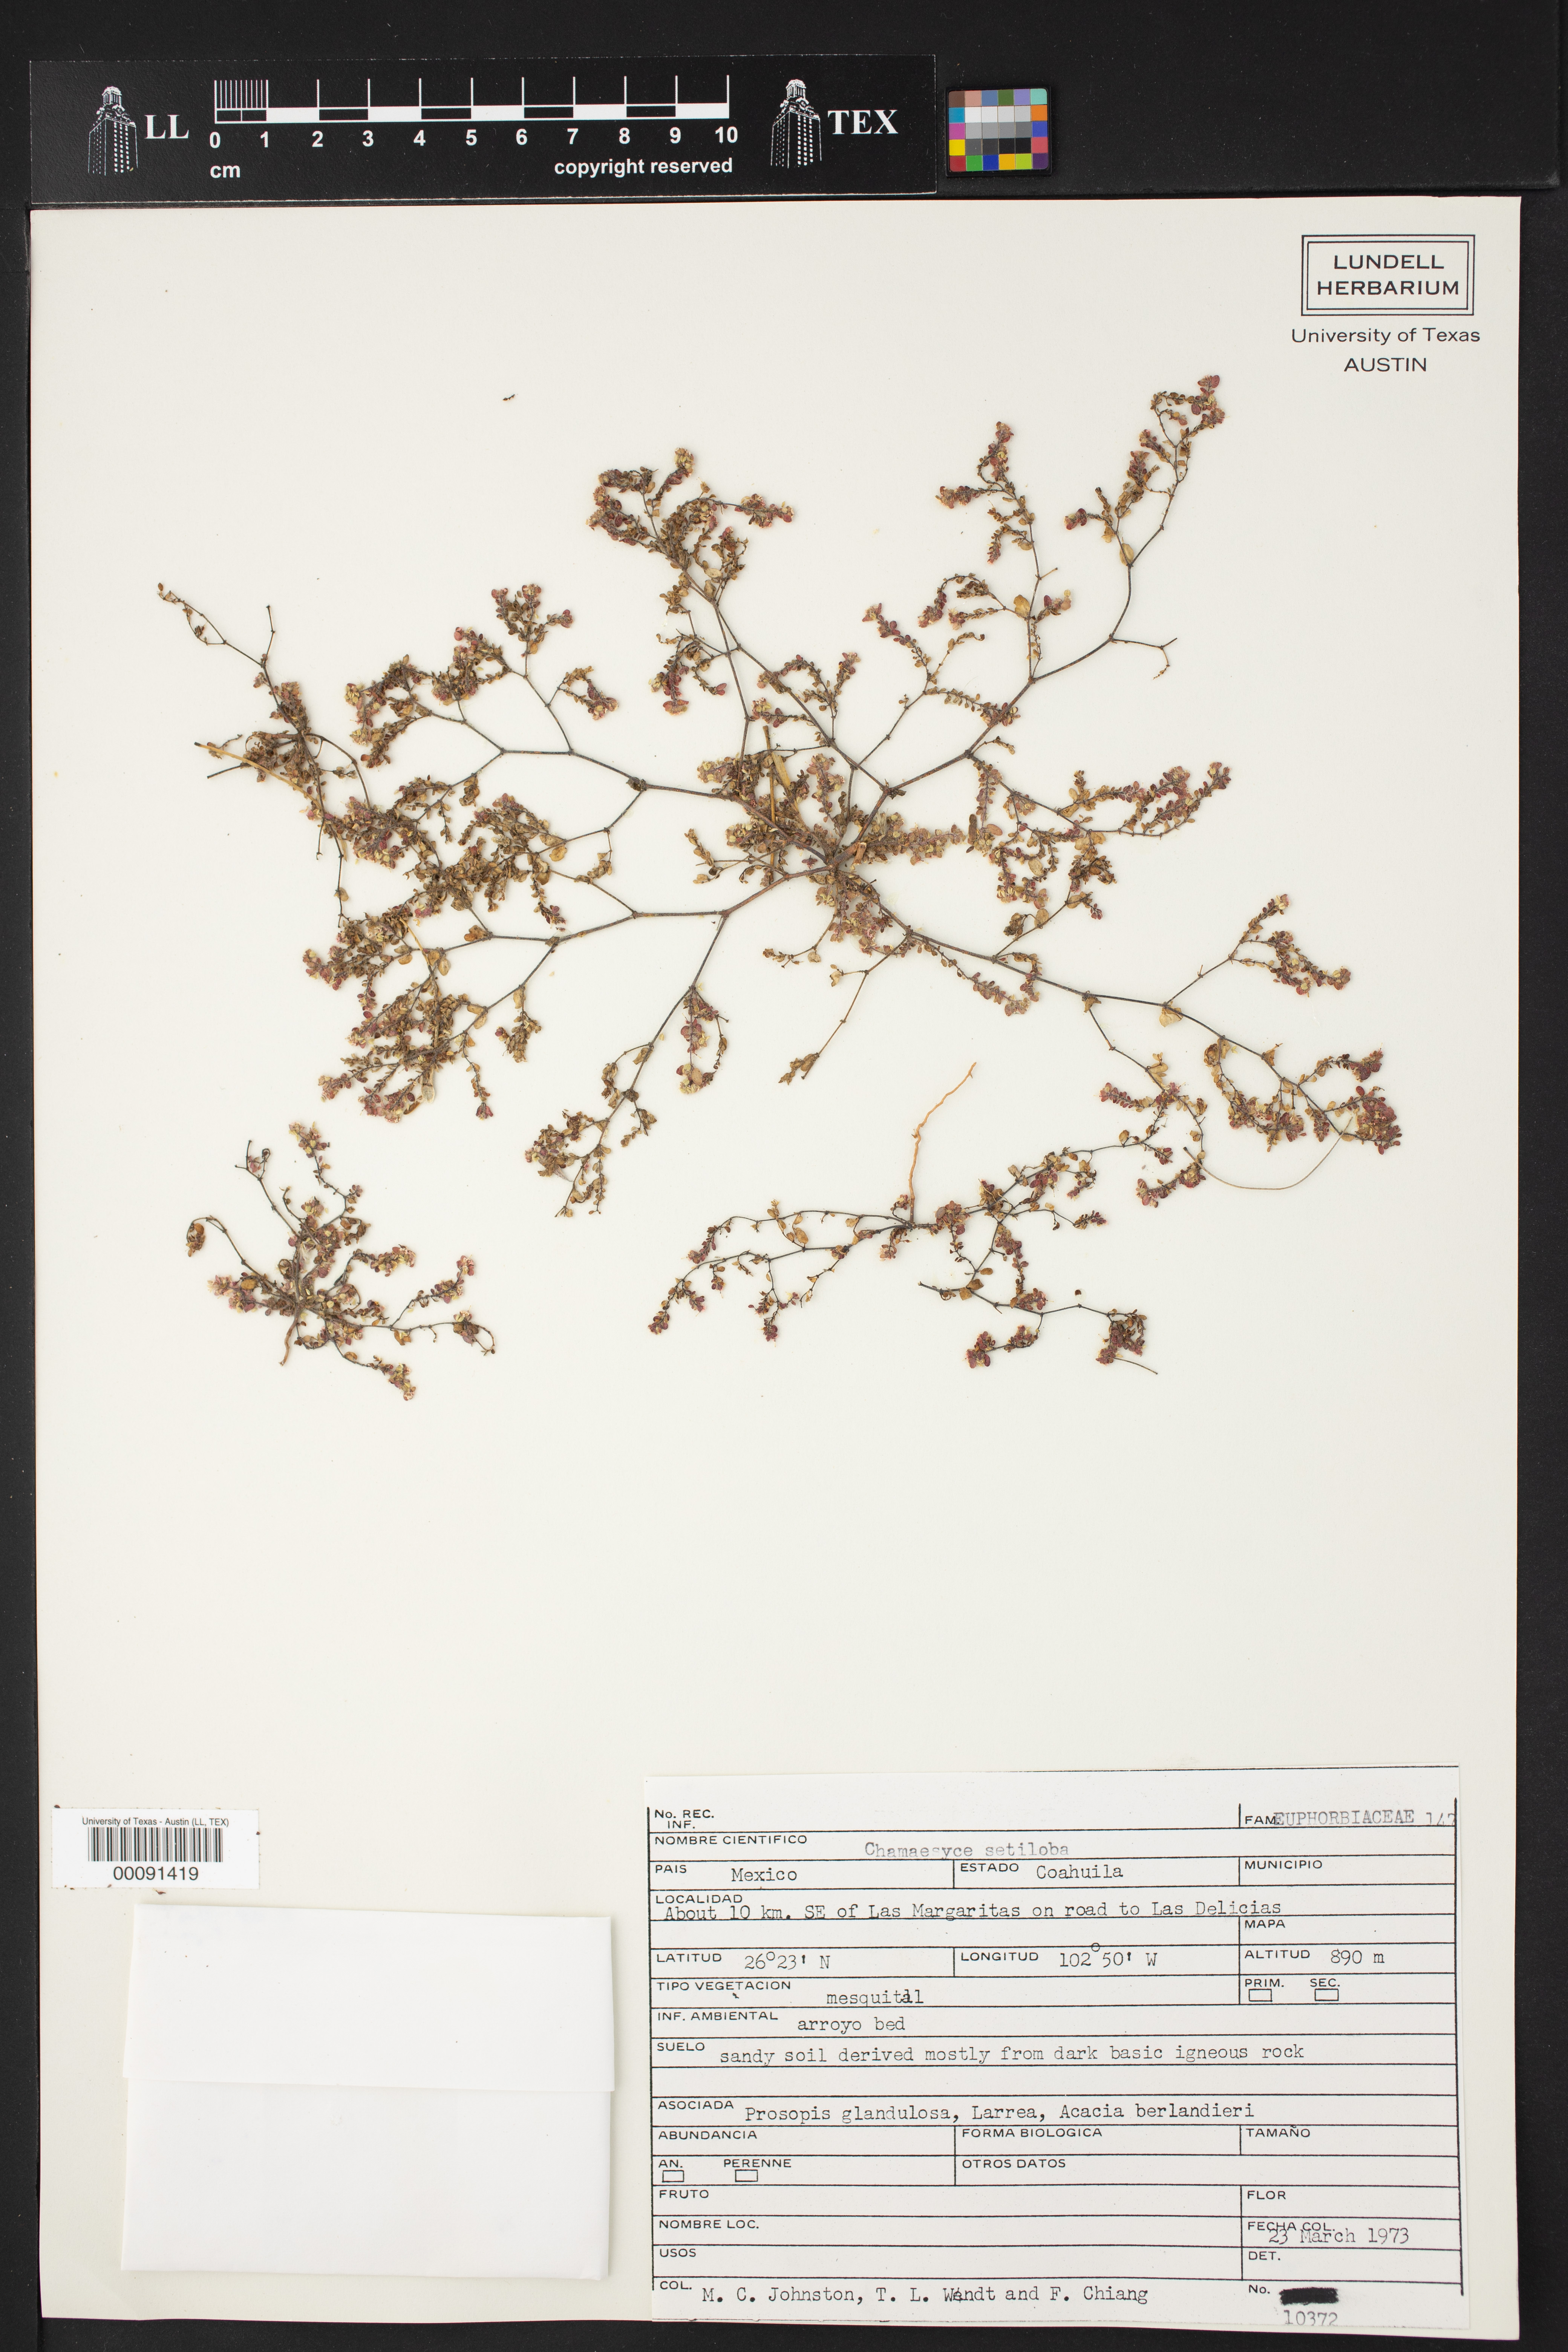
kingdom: Plantae
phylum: Tracheophyta
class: Magnoliopsida
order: Malpighiales
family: Euphorbiaceae
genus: Euphorbia
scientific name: Euphorbia setiloba
